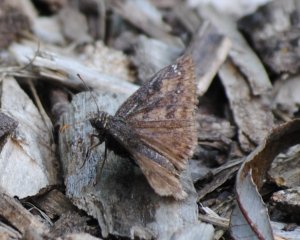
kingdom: Animalia
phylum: Arthropoda
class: Insecta
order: Lepidoptera
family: Hesperiidae
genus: Gesta
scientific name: Gesta
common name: Wild Indigo Duskywing
